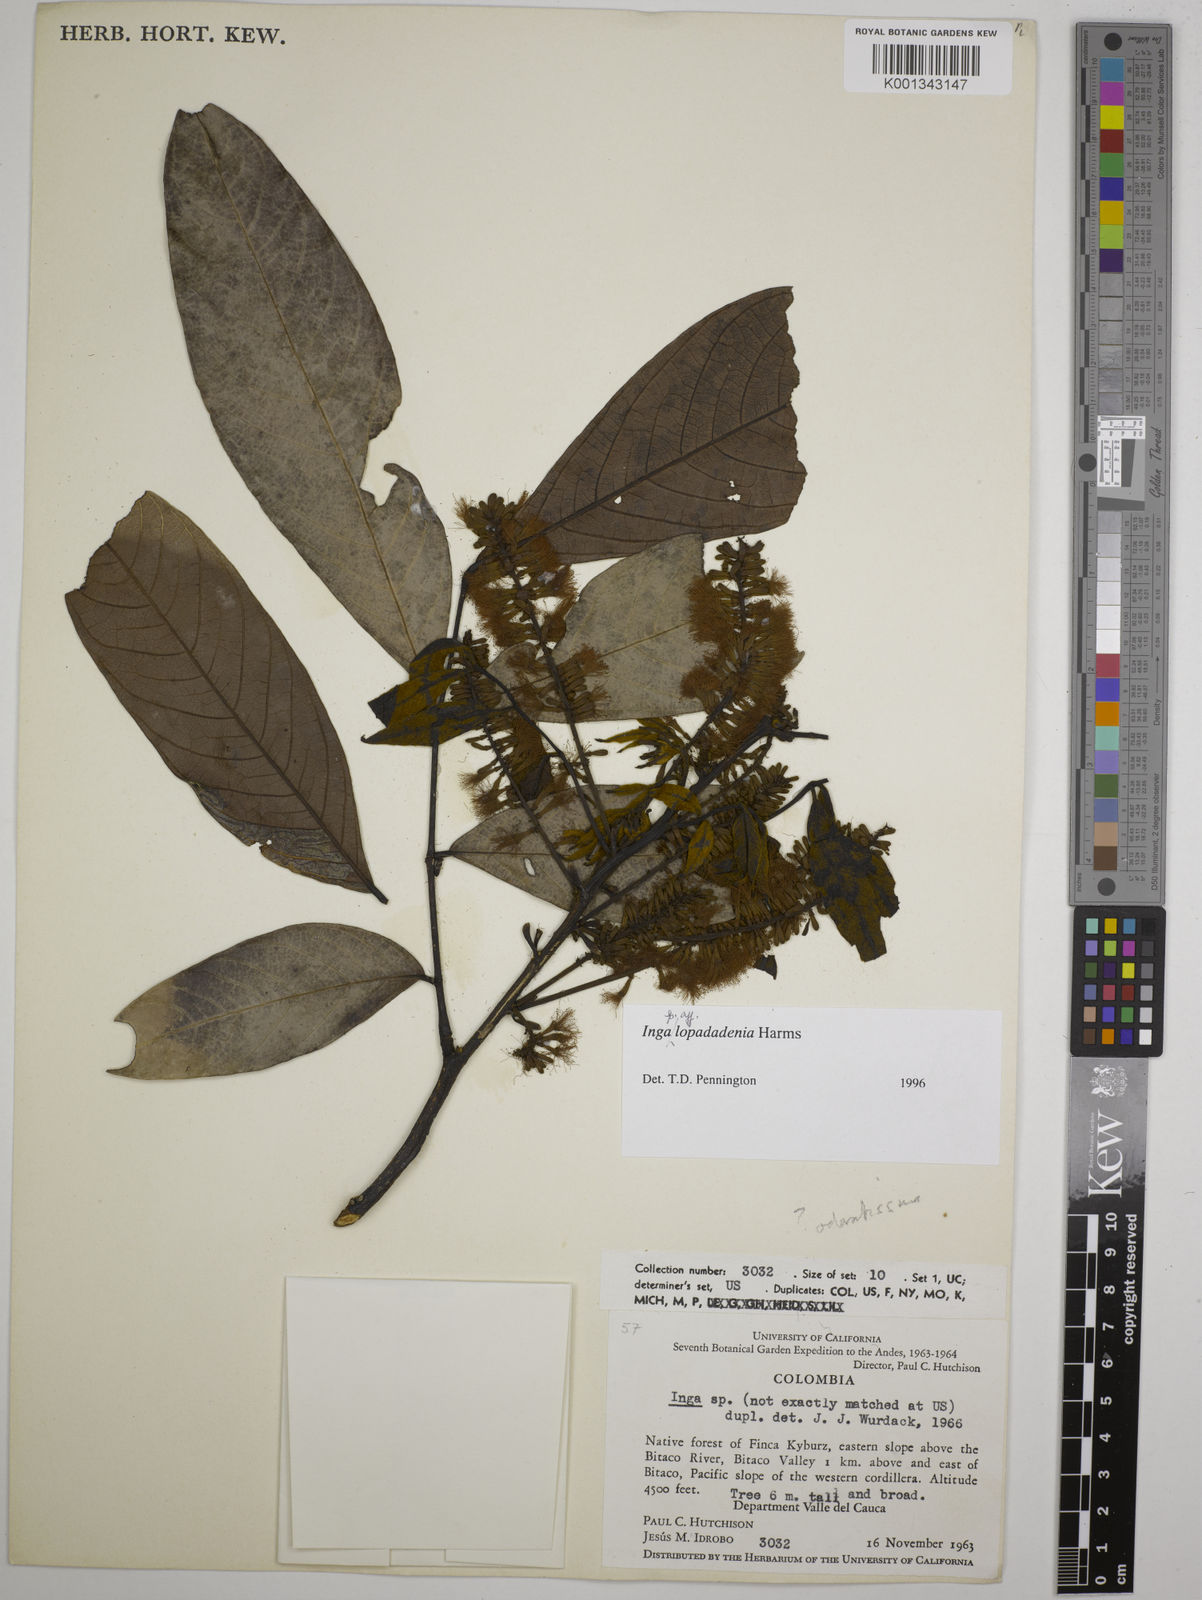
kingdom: Plantae
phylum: Tracheophyta
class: Magnoliopsida
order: Fabales
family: Fabaceae
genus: Inga
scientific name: Inga lopadadenia
